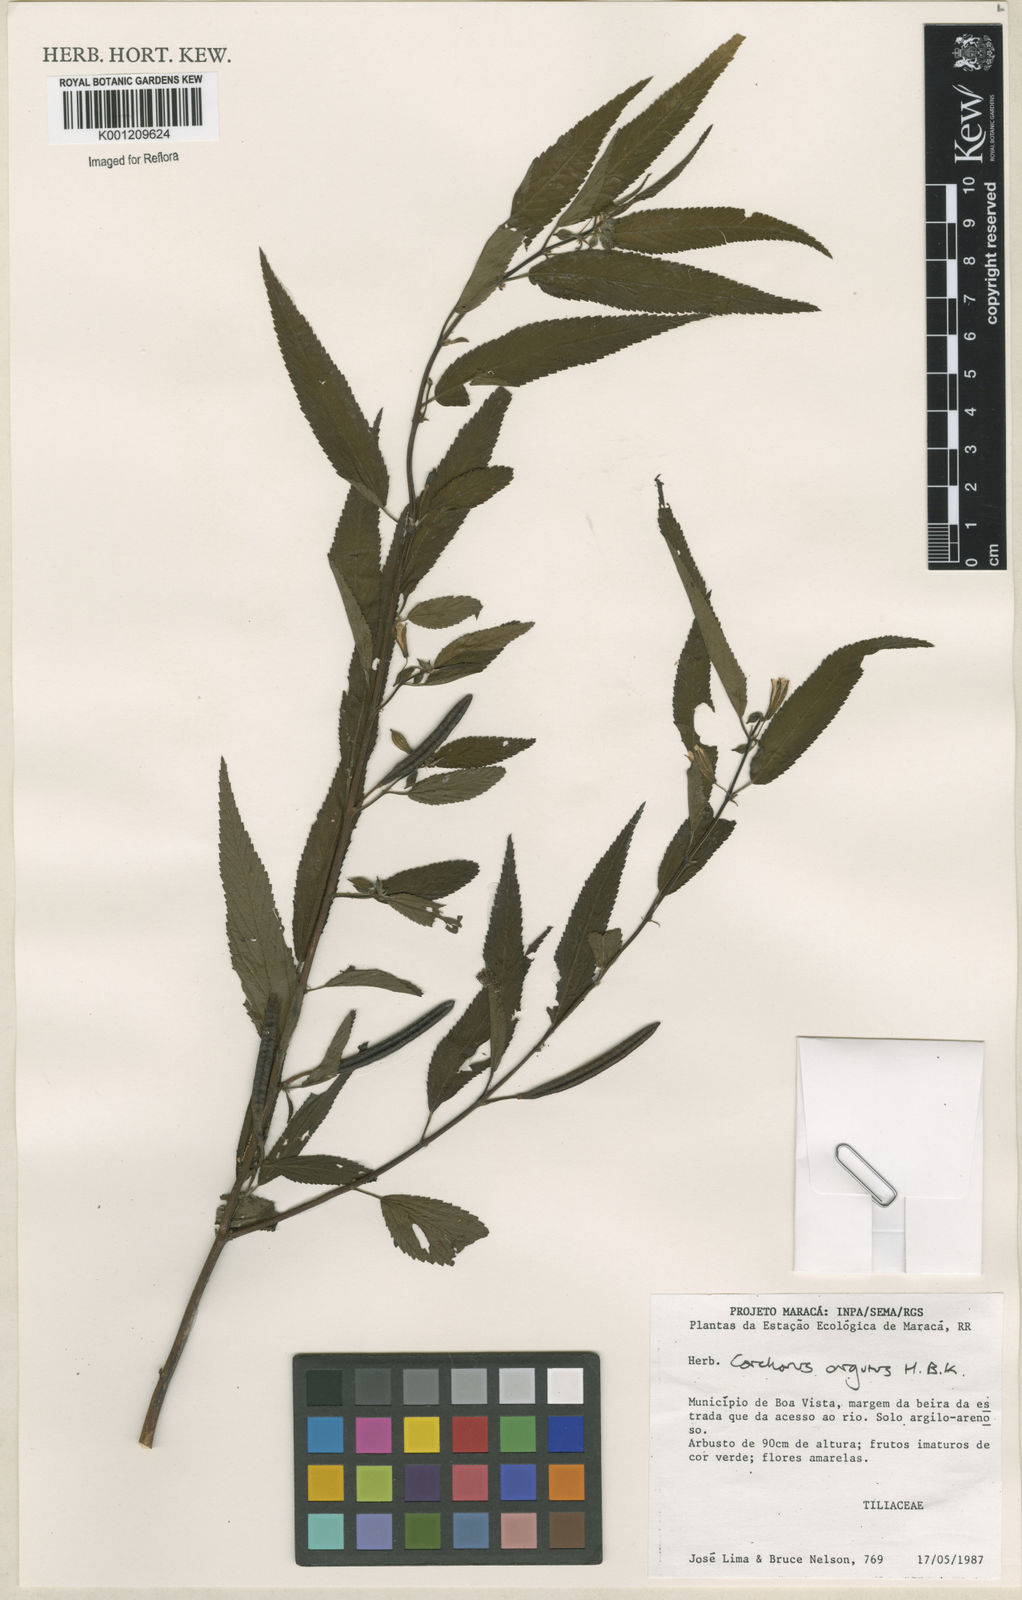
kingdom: Plantae
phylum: Tracheophyta
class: Magnoliopsida
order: Malvales
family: Malvaceae
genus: Corchorus
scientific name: Corchorus argutus
